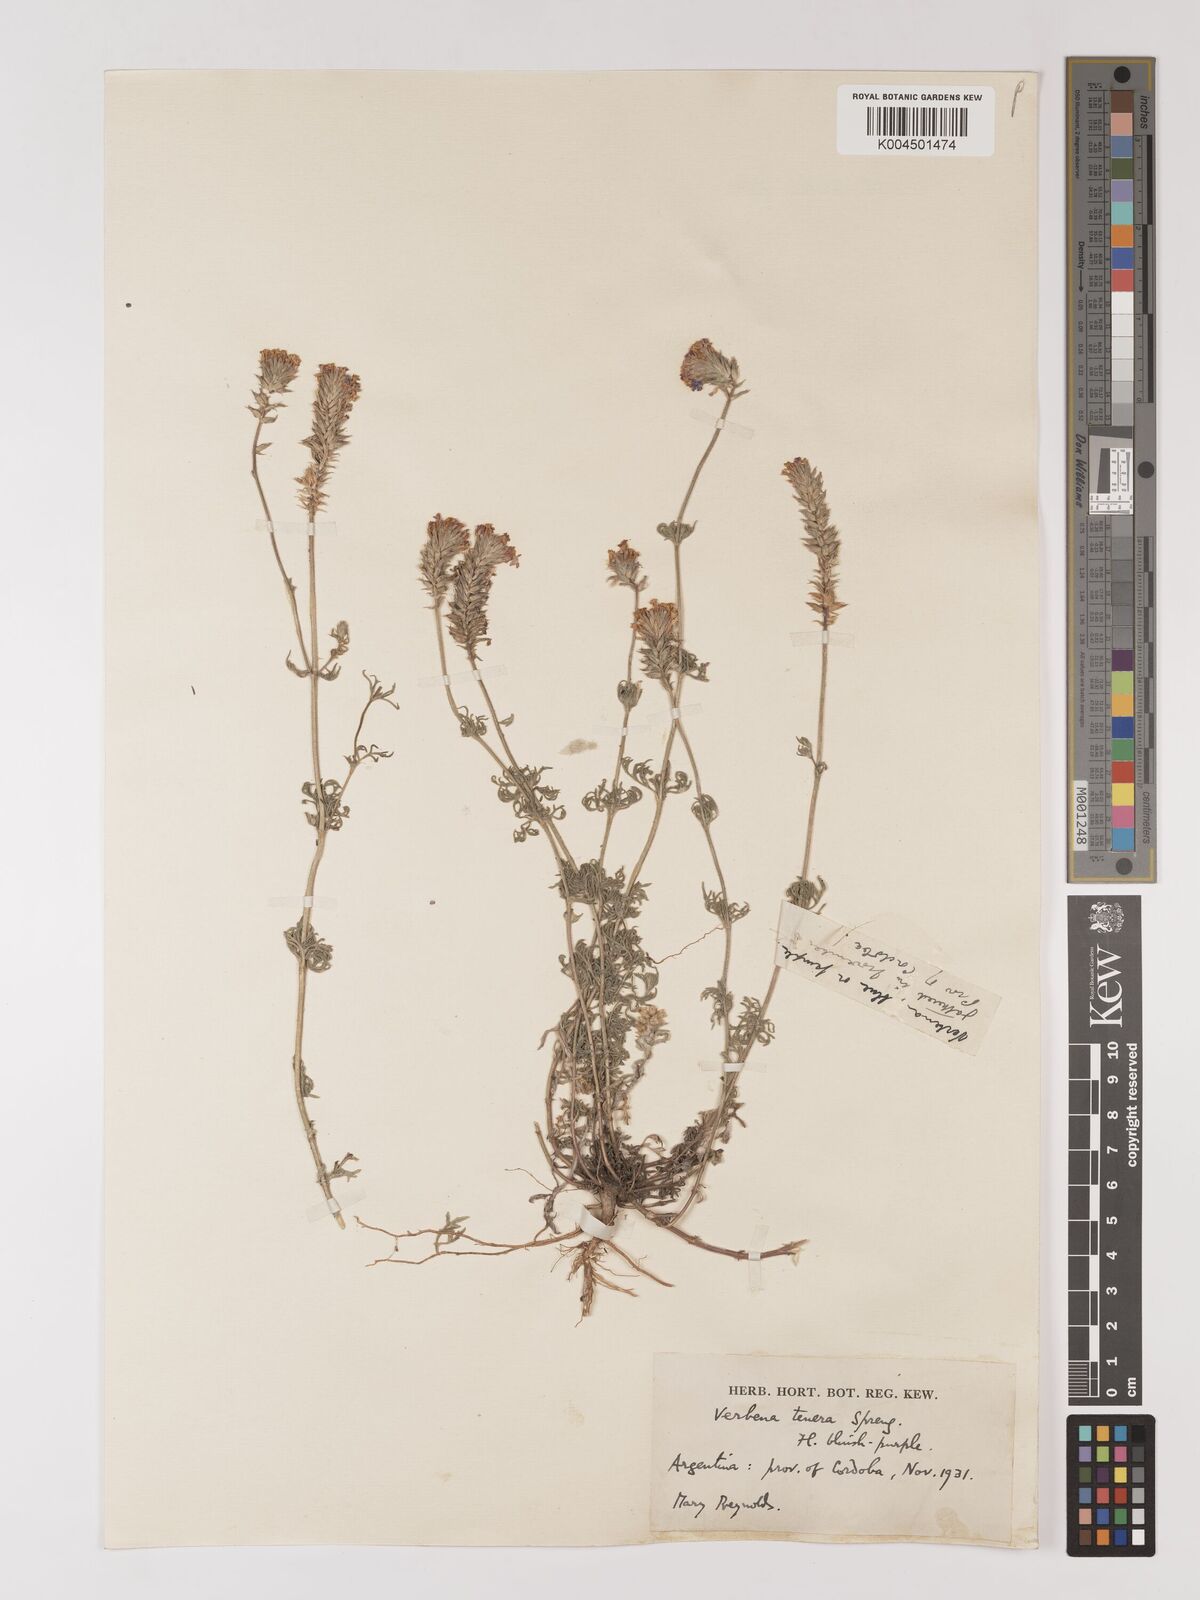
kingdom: Plantae
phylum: Tracheophyta
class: Magnoliopsida
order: Lamiales
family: Verbenaceae
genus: Verbena
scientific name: Verbena tenera
